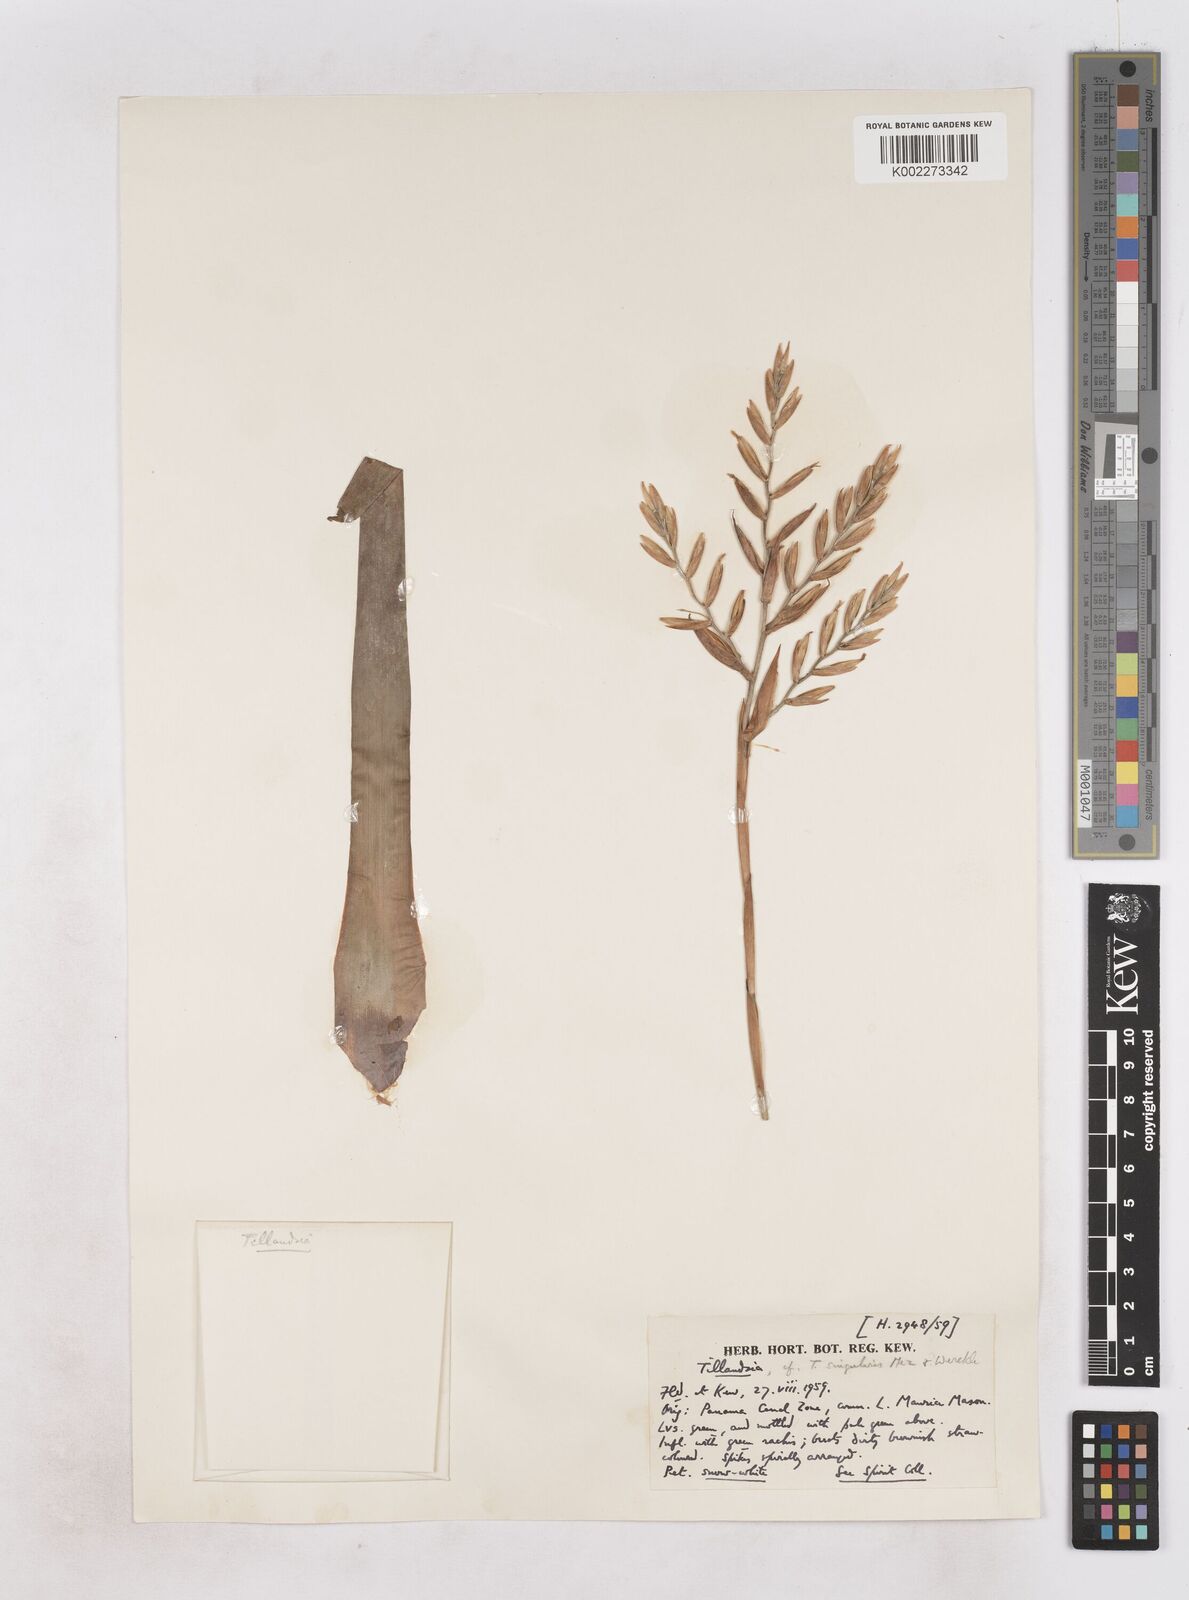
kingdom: Plantae
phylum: Tracheophyta
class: Liliopsida
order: Poales
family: Bromeliaceae
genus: Cipuropsis
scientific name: Cipuropsis singularis
